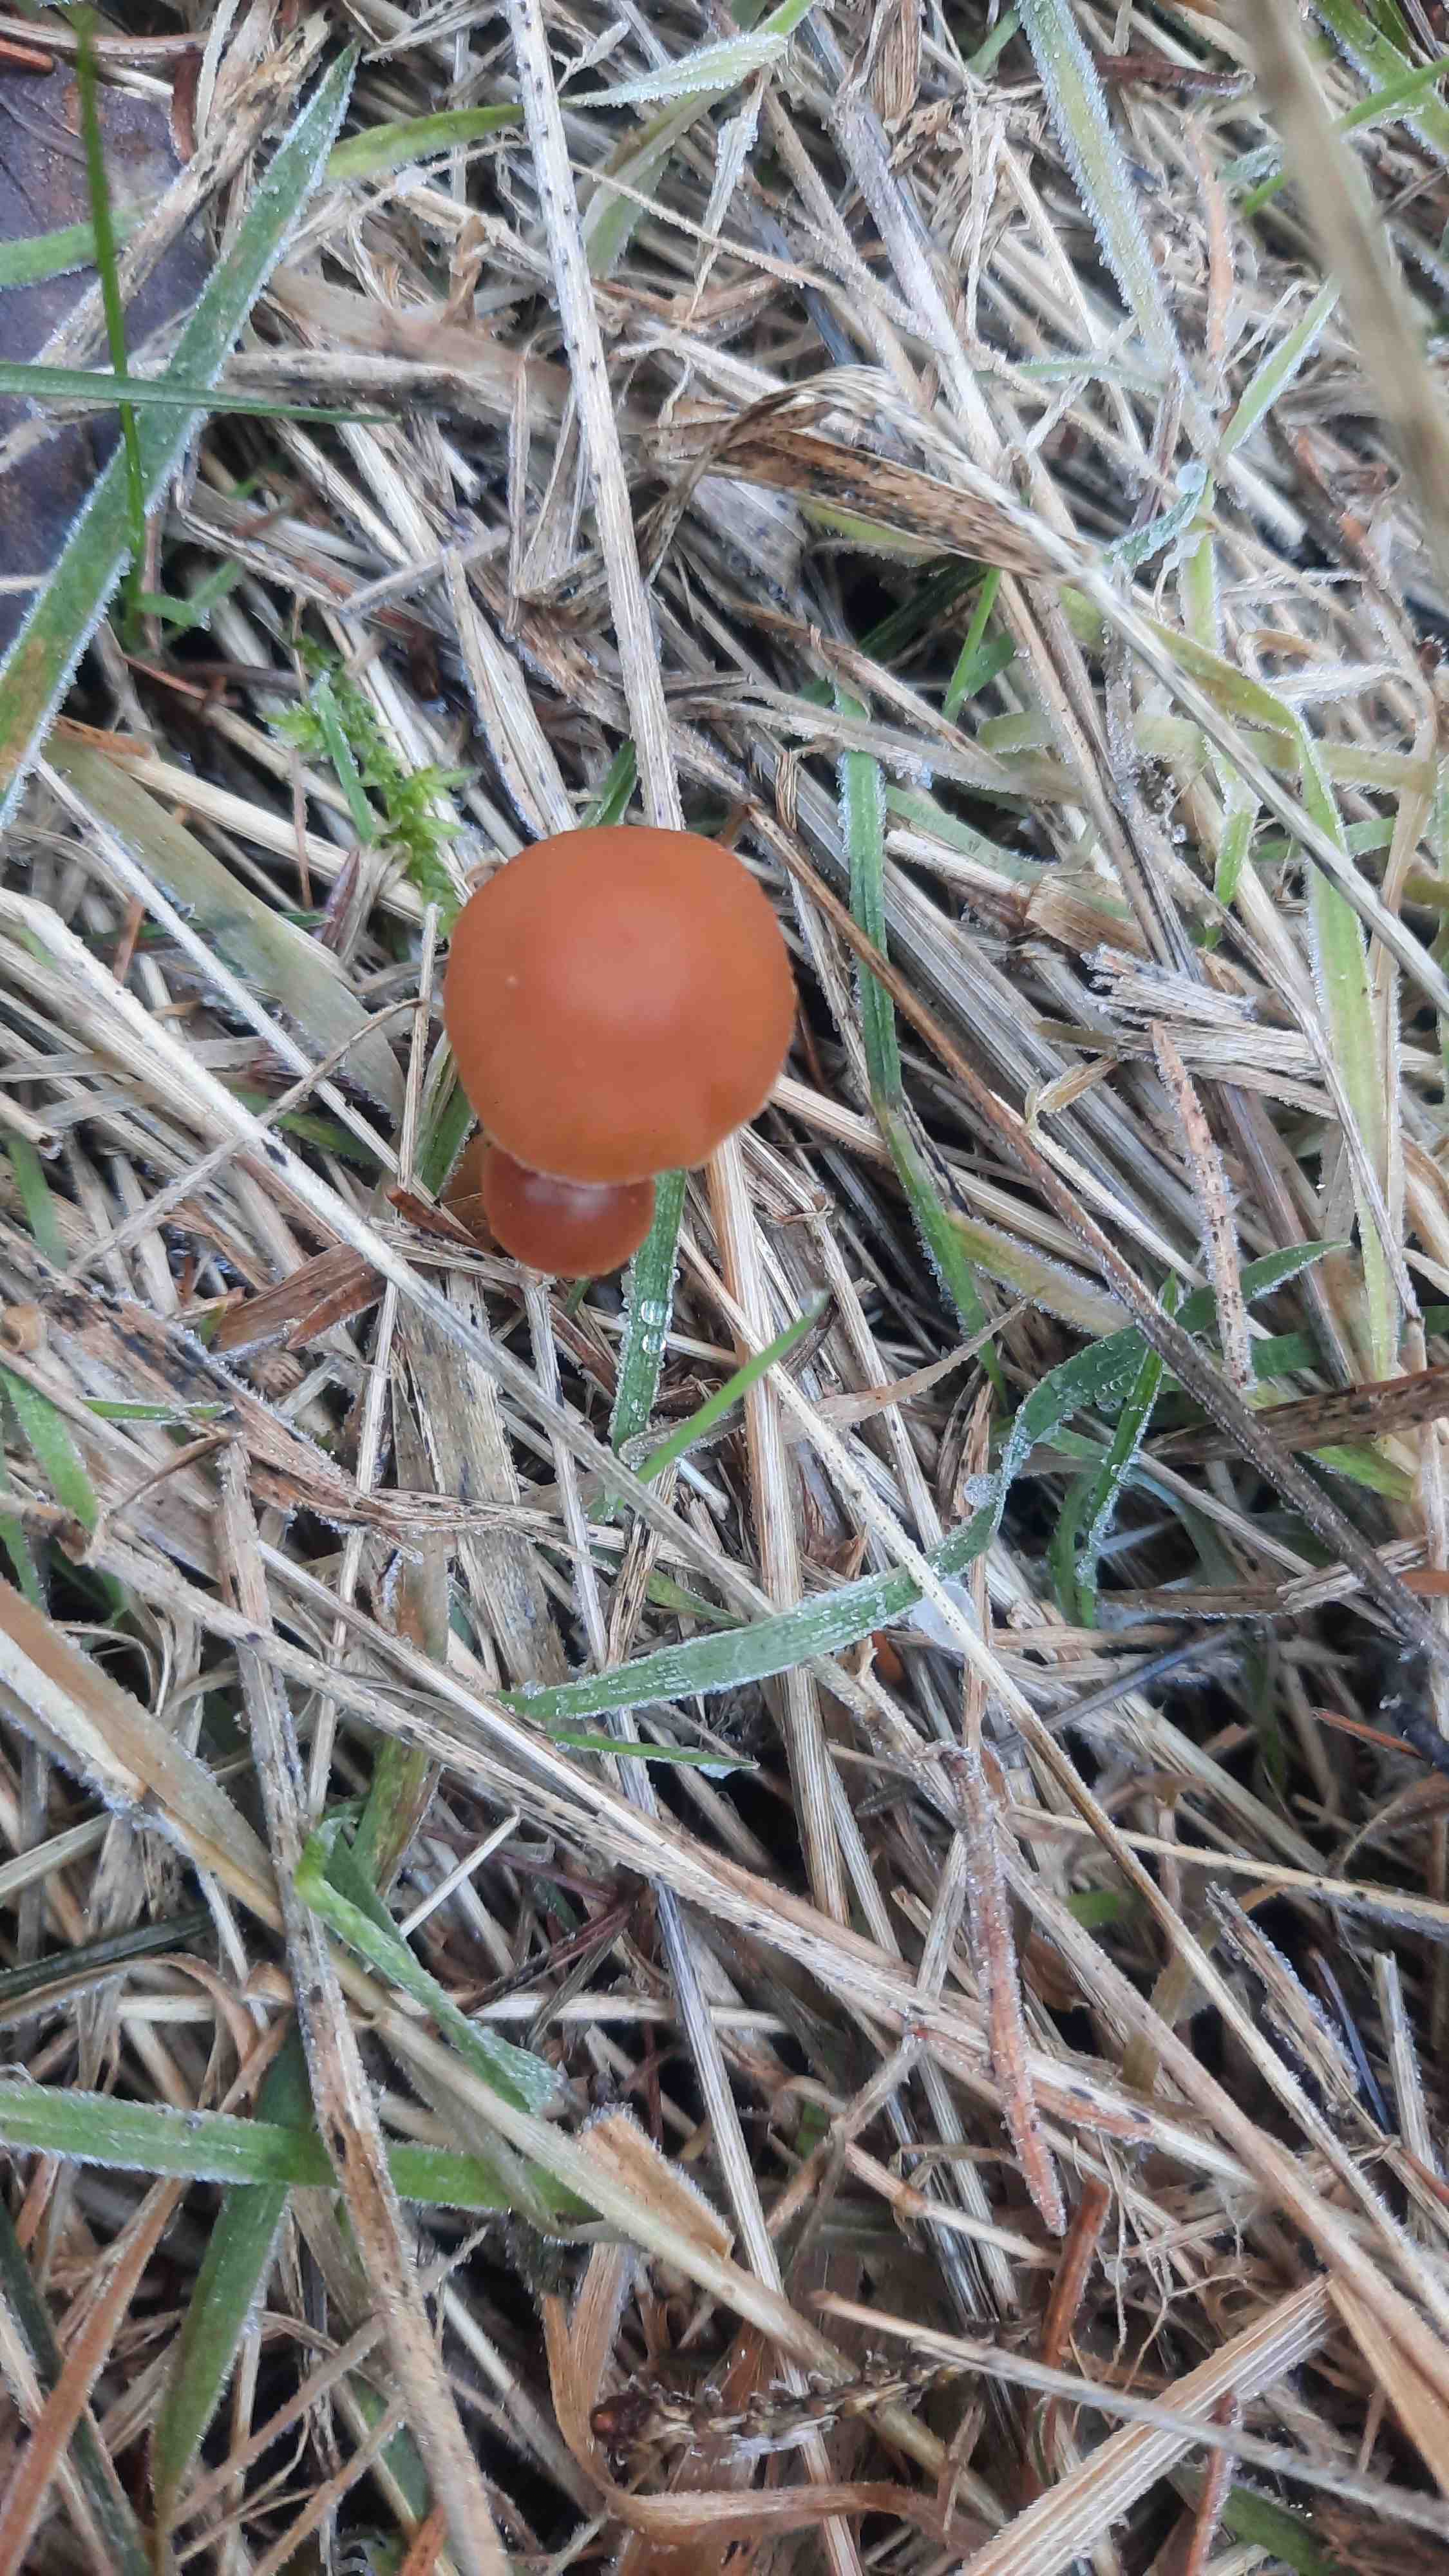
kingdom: Fungi
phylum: Basidiomycota
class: Agaricomycetes
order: Agaricales
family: Tubariaceae
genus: Tubaria
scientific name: Tubaria furfuracea
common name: kliddet fnughat
